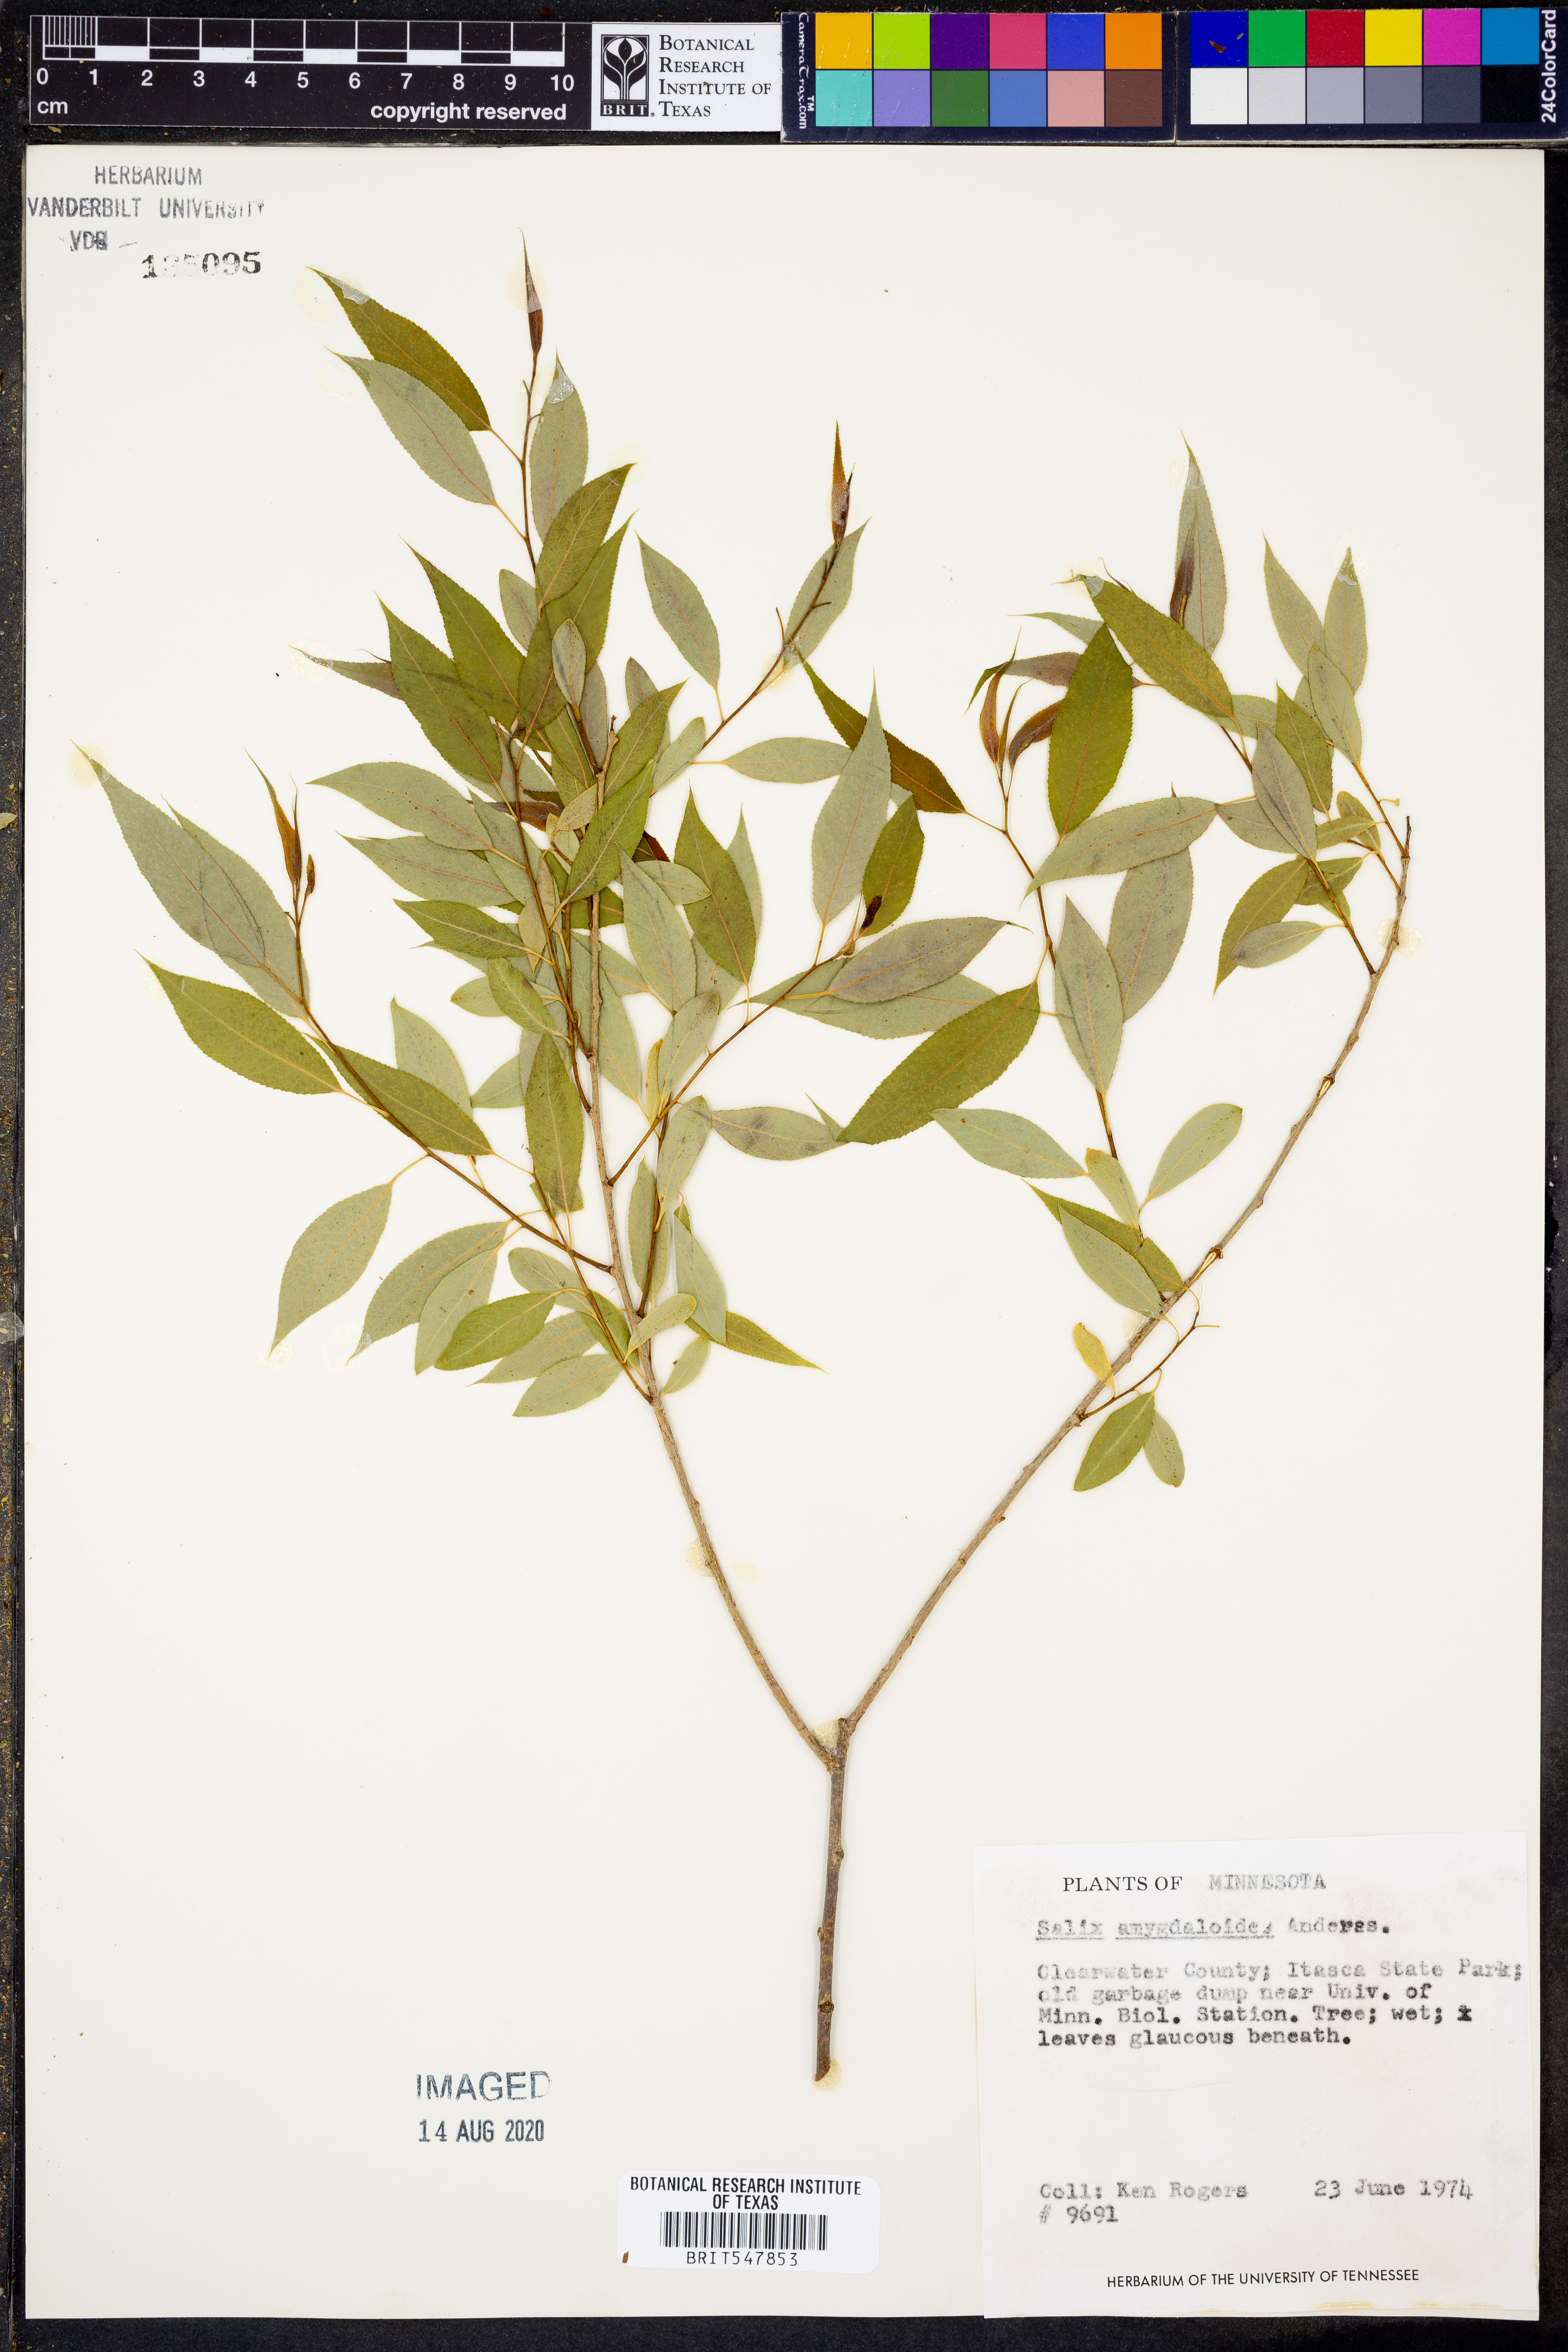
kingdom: Plantae
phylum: Tracheophyta
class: Magnoliopsida
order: Malpighiales
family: Salicaceae
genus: Salix
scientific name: Salix amygdaloides
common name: Peach leaf willow
